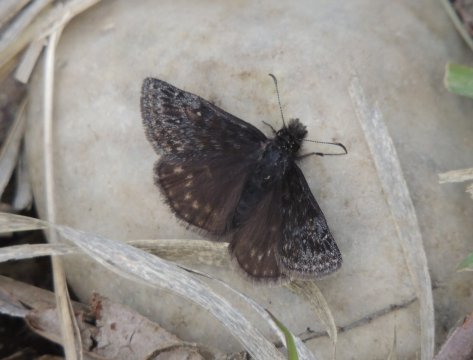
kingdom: Animalia
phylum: Arthropoda
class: Insecta
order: Lepidoptera
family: Hesperiidae
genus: Gesta
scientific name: Gesta
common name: Persius Duskywing
